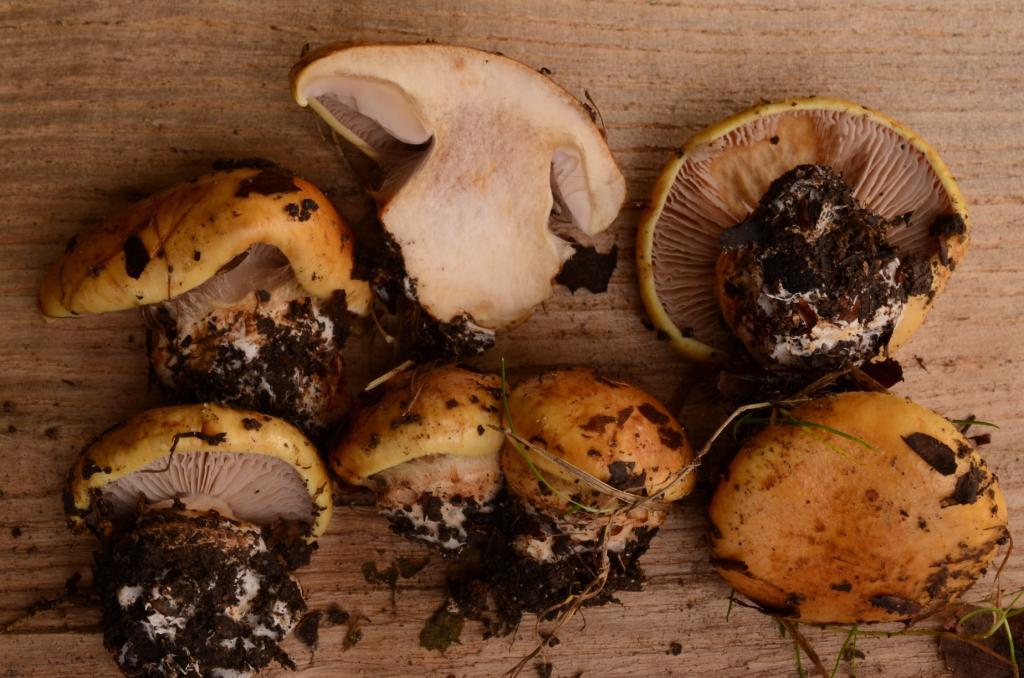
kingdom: Fungi
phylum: Basidiomycota
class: Agaricomycetes
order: Agaricales
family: Cortinariaceae
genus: Calonarius
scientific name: Calonarius cisticola
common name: cistus-slørhat
